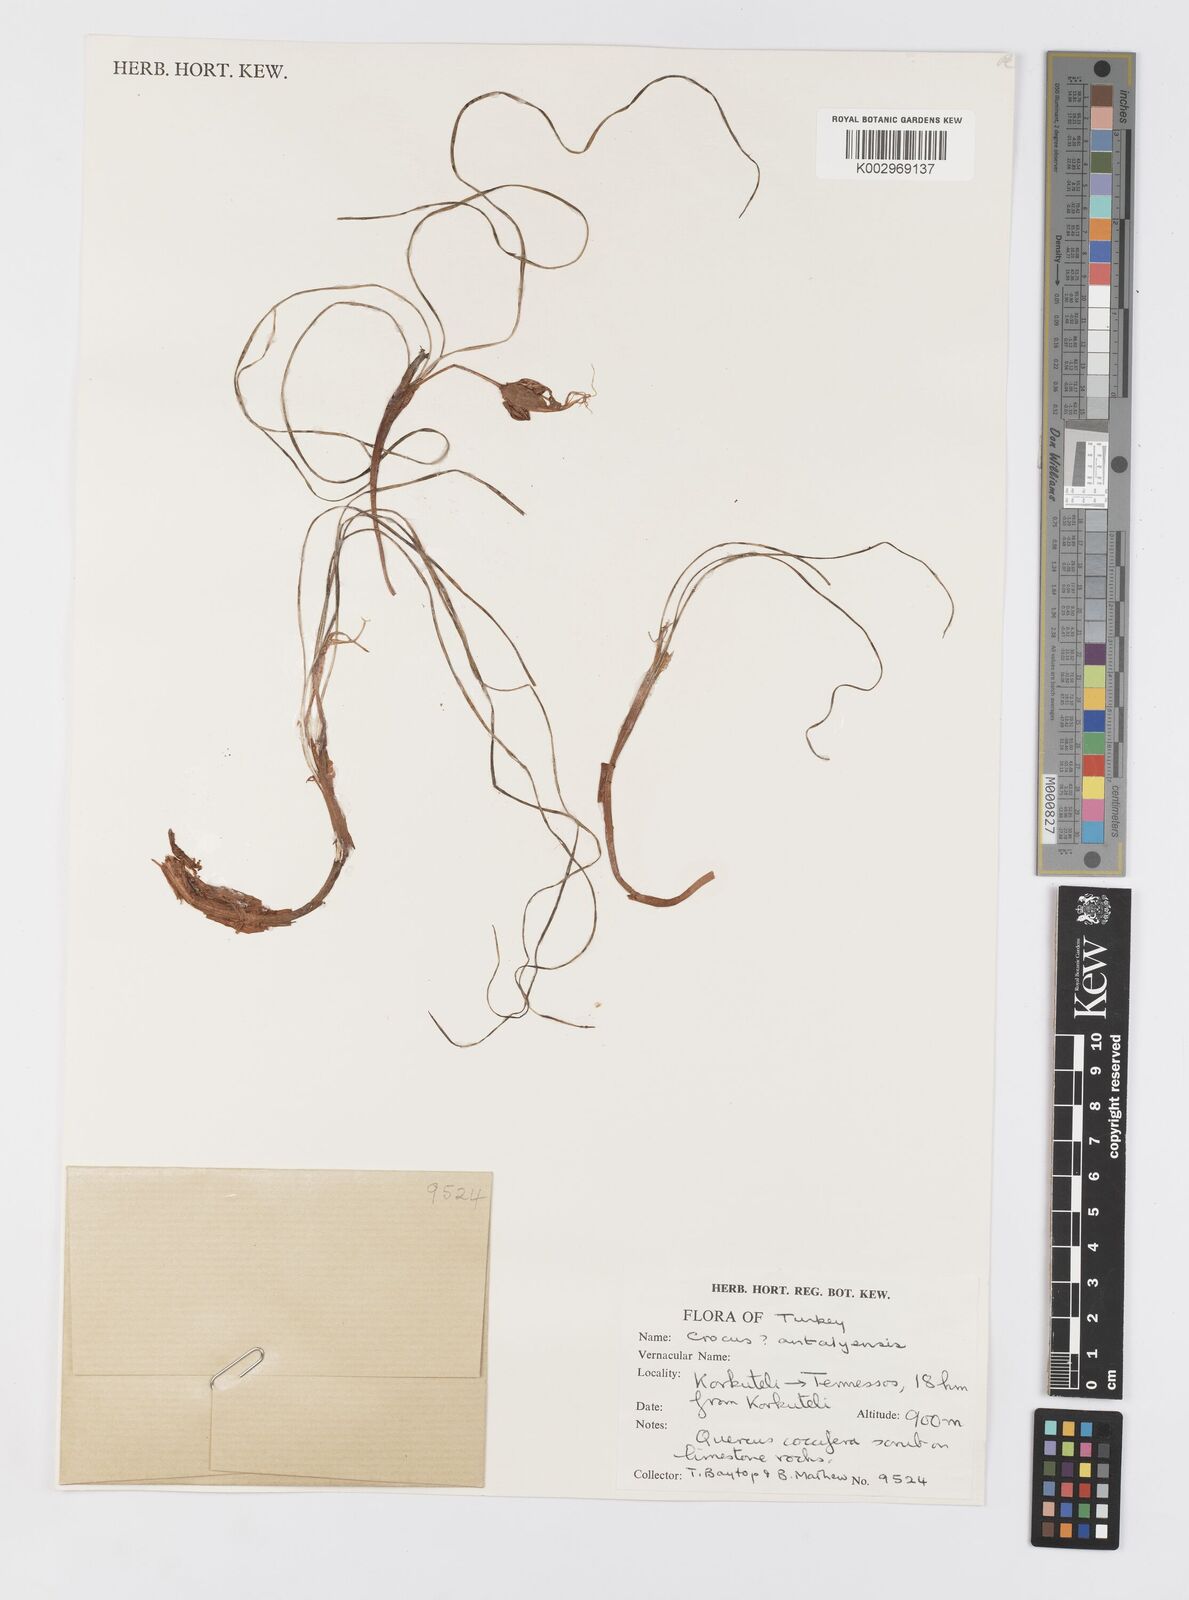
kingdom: Plantae
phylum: Tracheophyta
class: Liliopsida
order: Asparagales
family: Iridaceae
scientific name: Iridaceae
